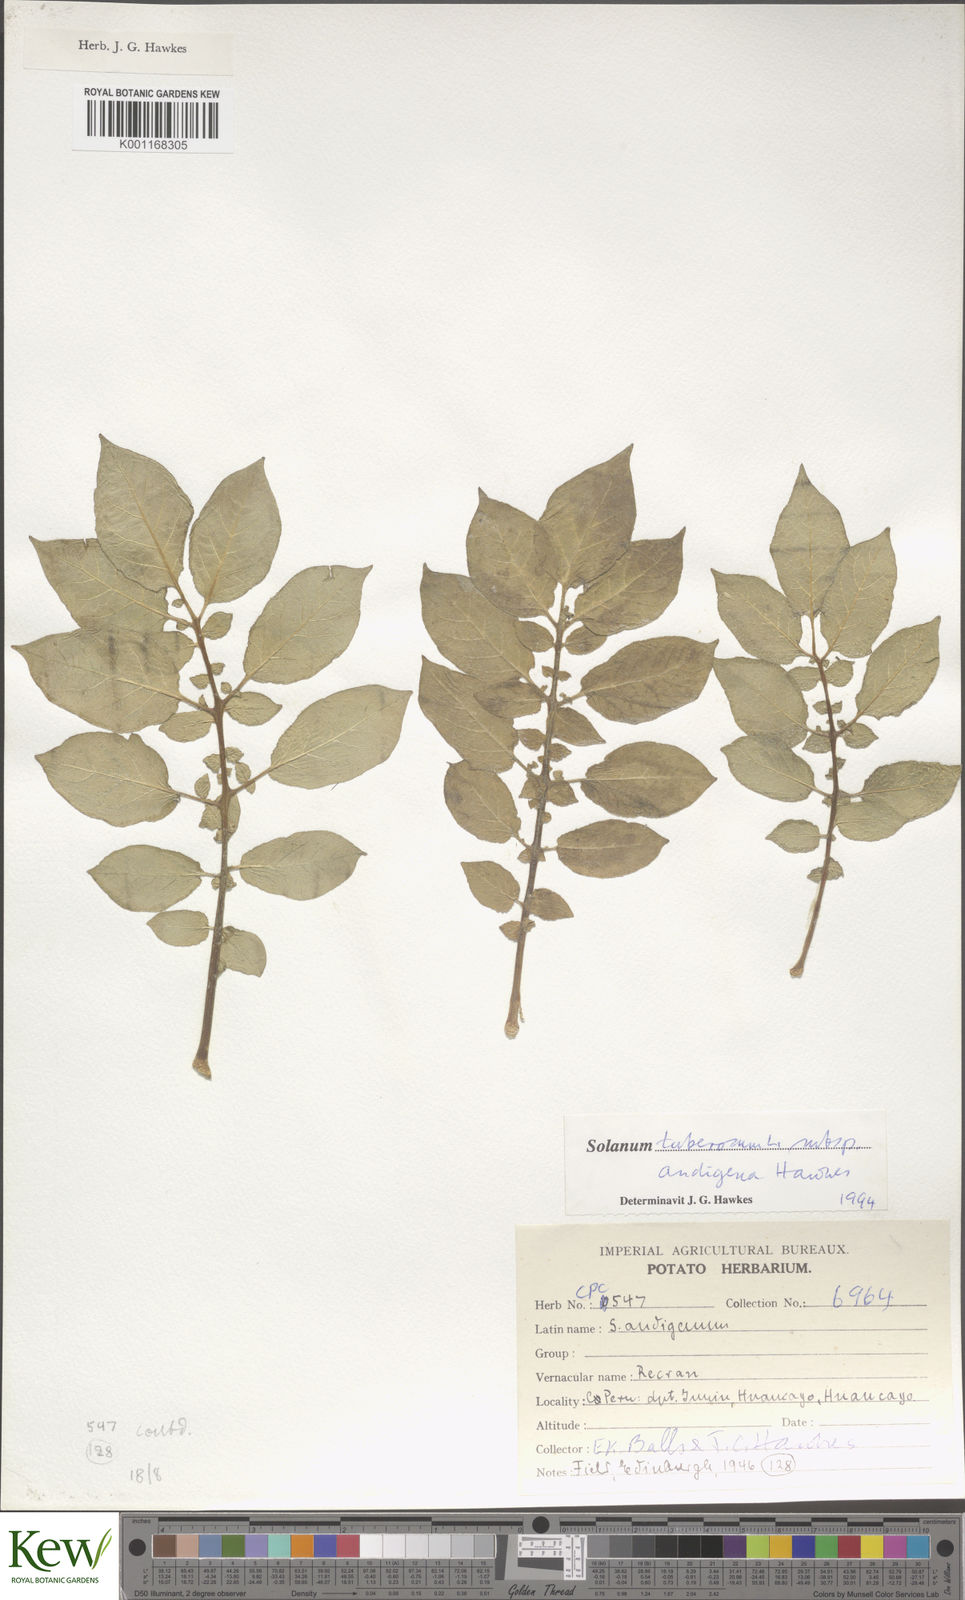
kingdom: Plantae
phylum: Tracheophyta
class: Magnoliopsida
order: Solanales
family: Solanaceae
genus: Solanum
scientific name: Solanum tuberosum
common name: Potato
